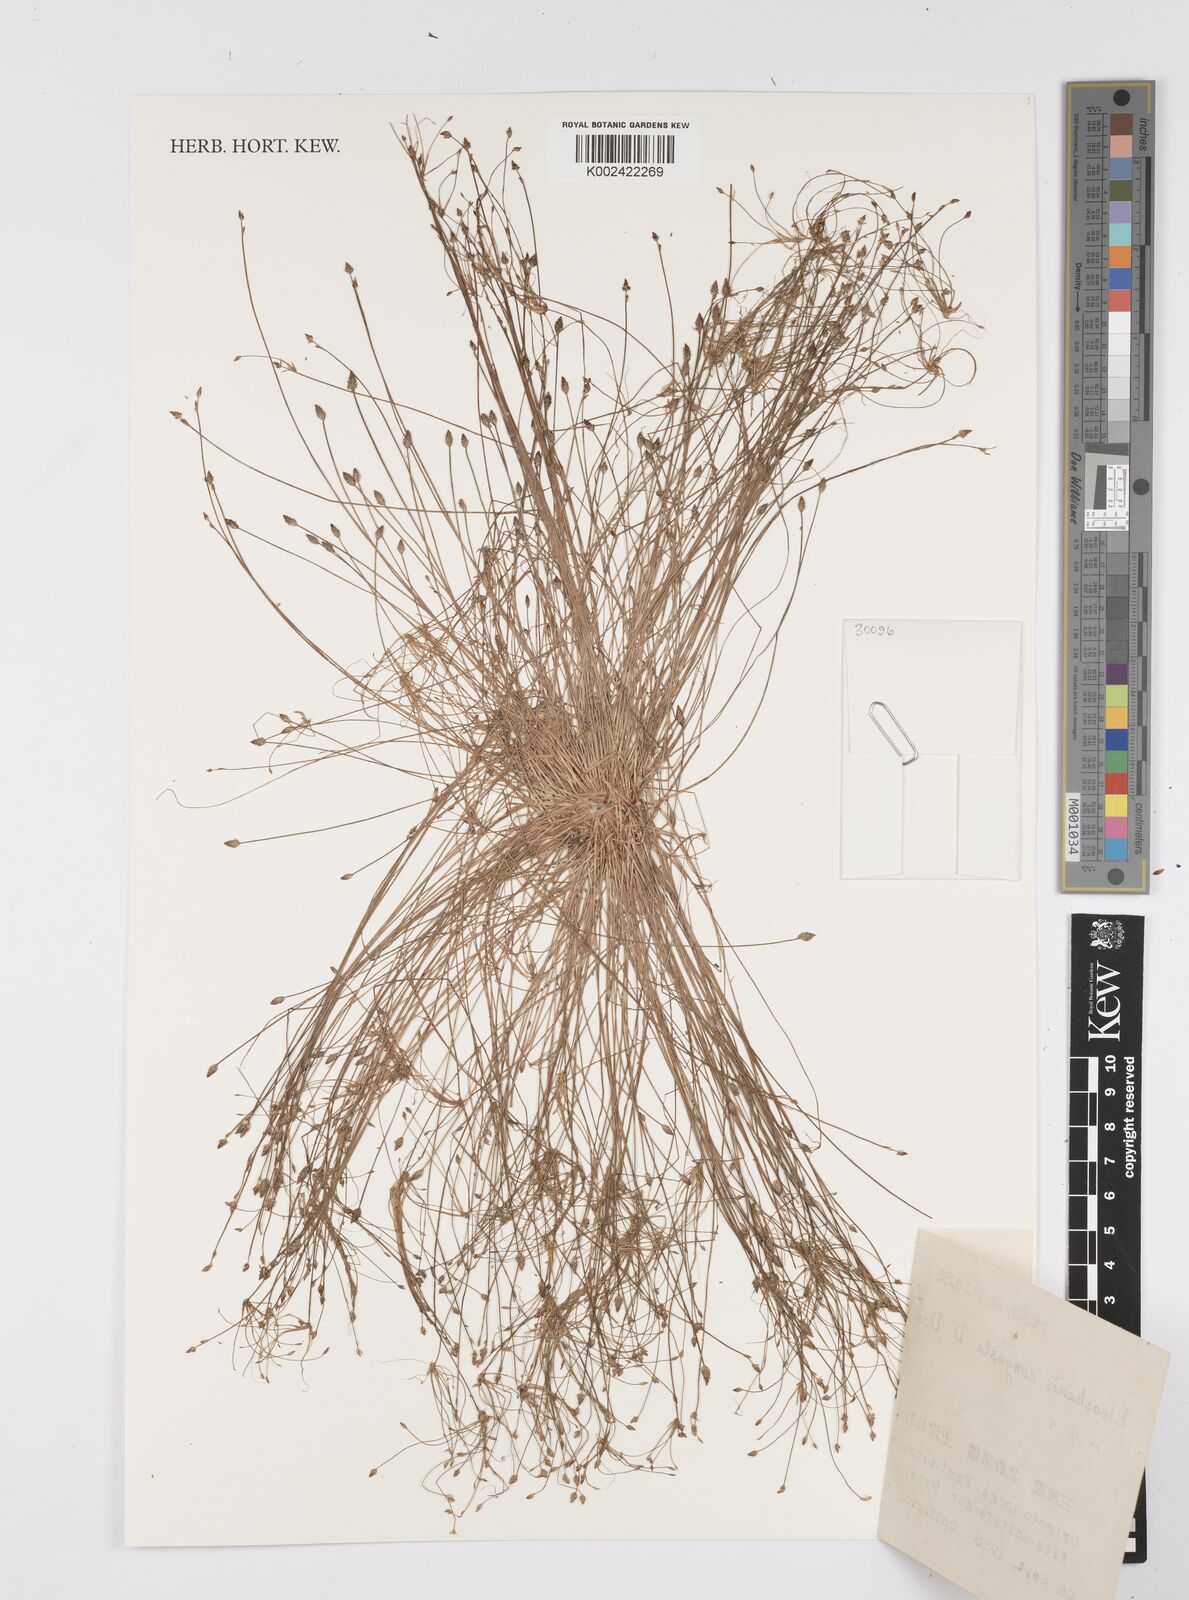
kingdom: Plantae
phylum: Tracheophyta
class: Liliopsida
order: Poales
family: Cyperaceae
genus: Eleocharis
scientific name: Eleocharis congesta
